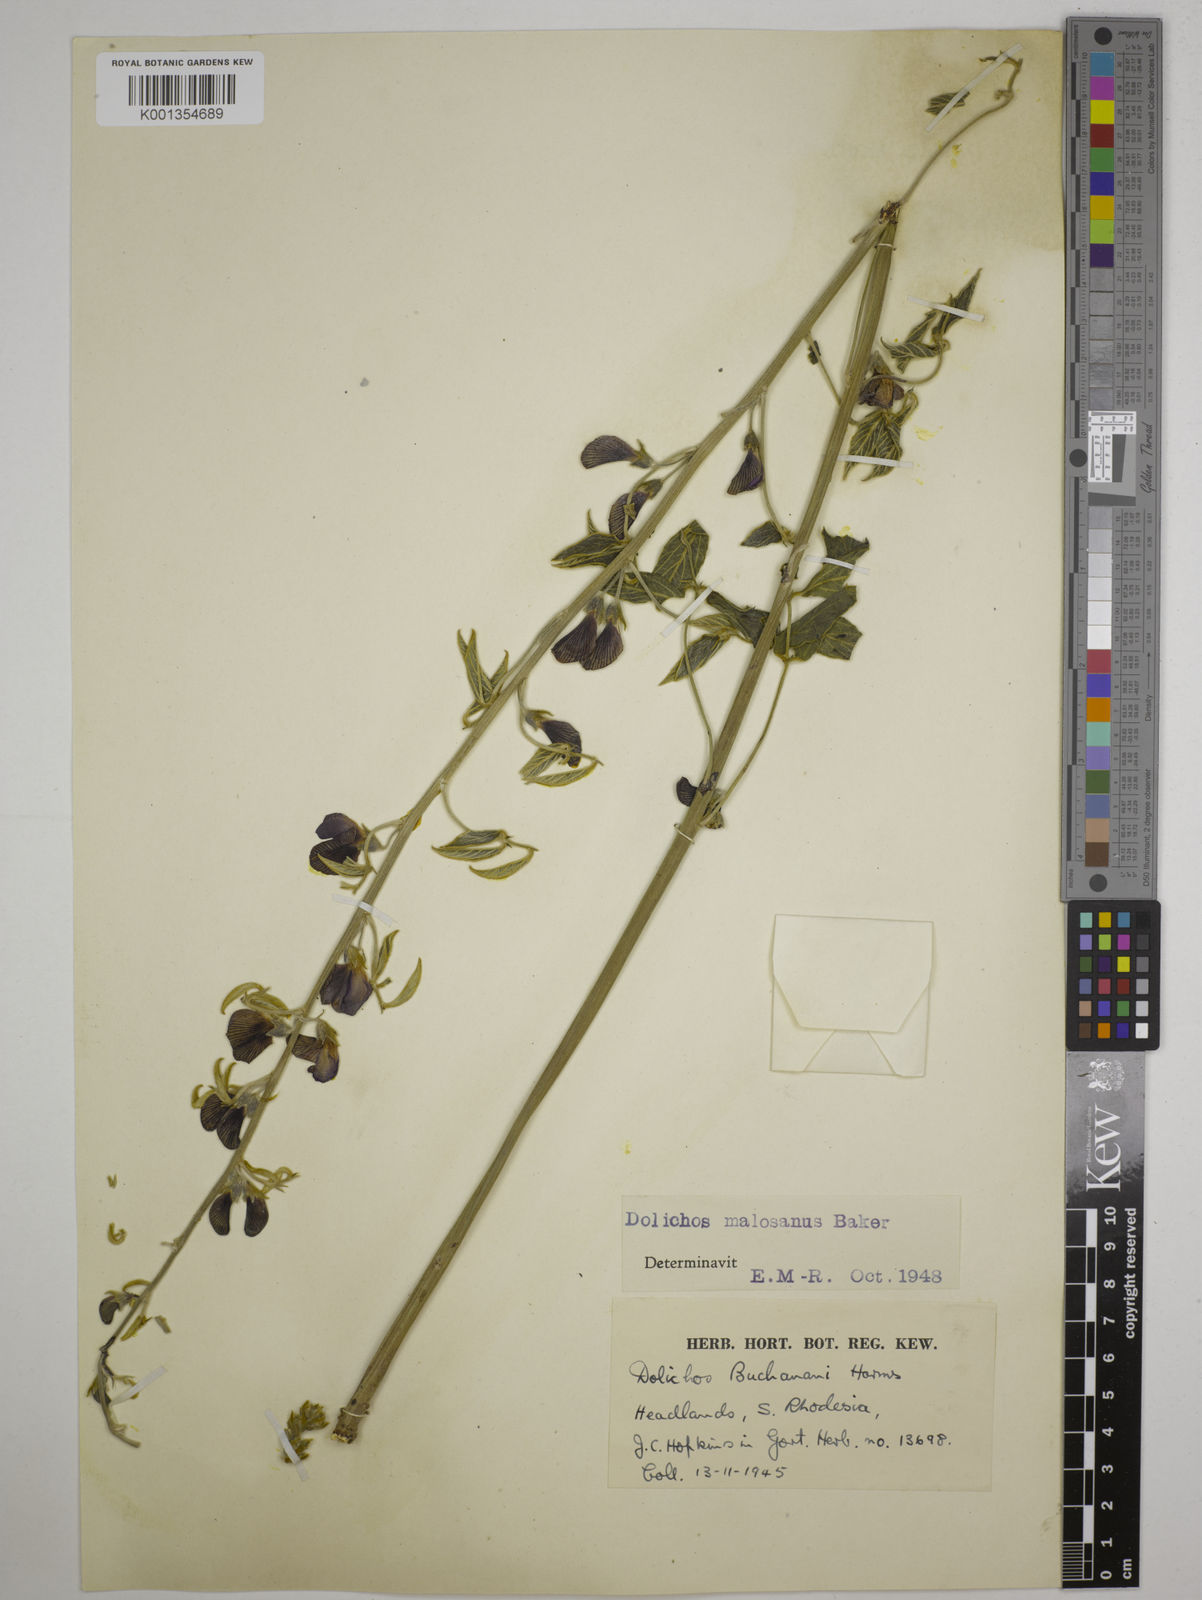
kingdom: Plantae
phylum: Tracheophyta
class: Magnoliopsida
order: Fabales
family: Fabaceae
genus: Dolichos
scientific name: Dolichos kilimandscharicus
